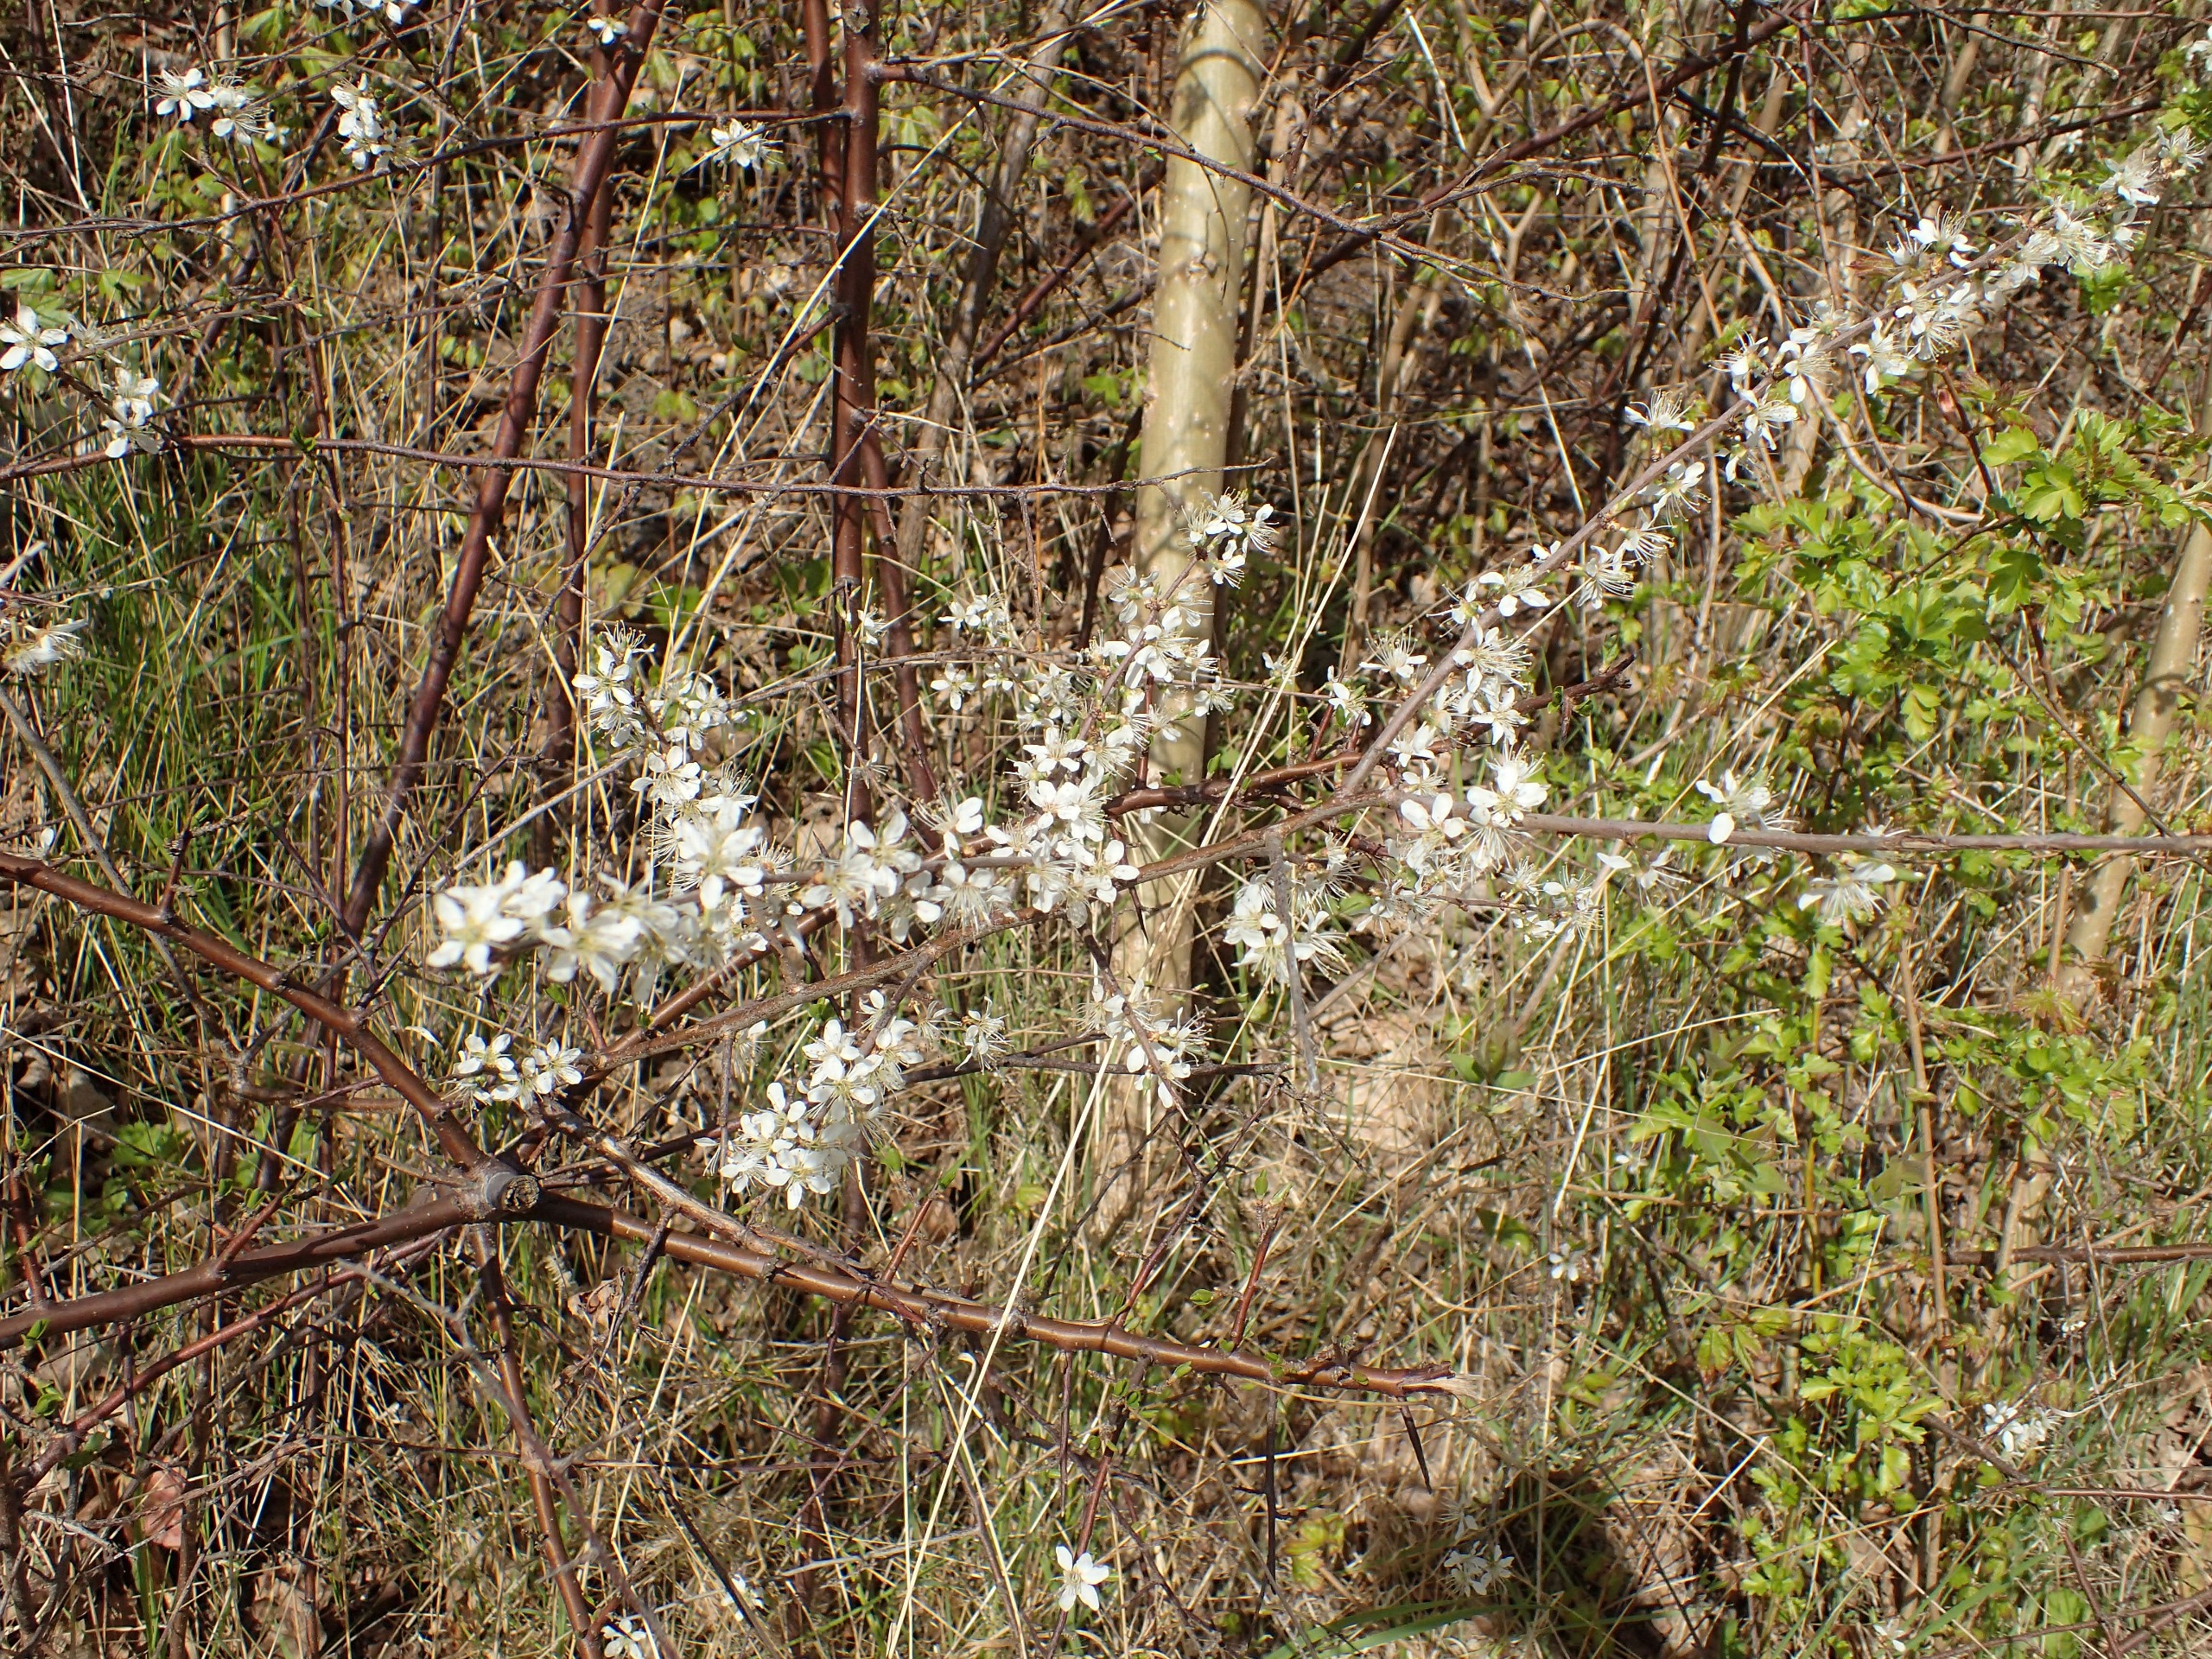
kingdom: Plantae
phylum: Tracheophyta
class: Magnoliopsida
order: Rosales
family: Rosaceae
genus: Prunus
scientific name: Prunus spinosa
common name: Slåen
